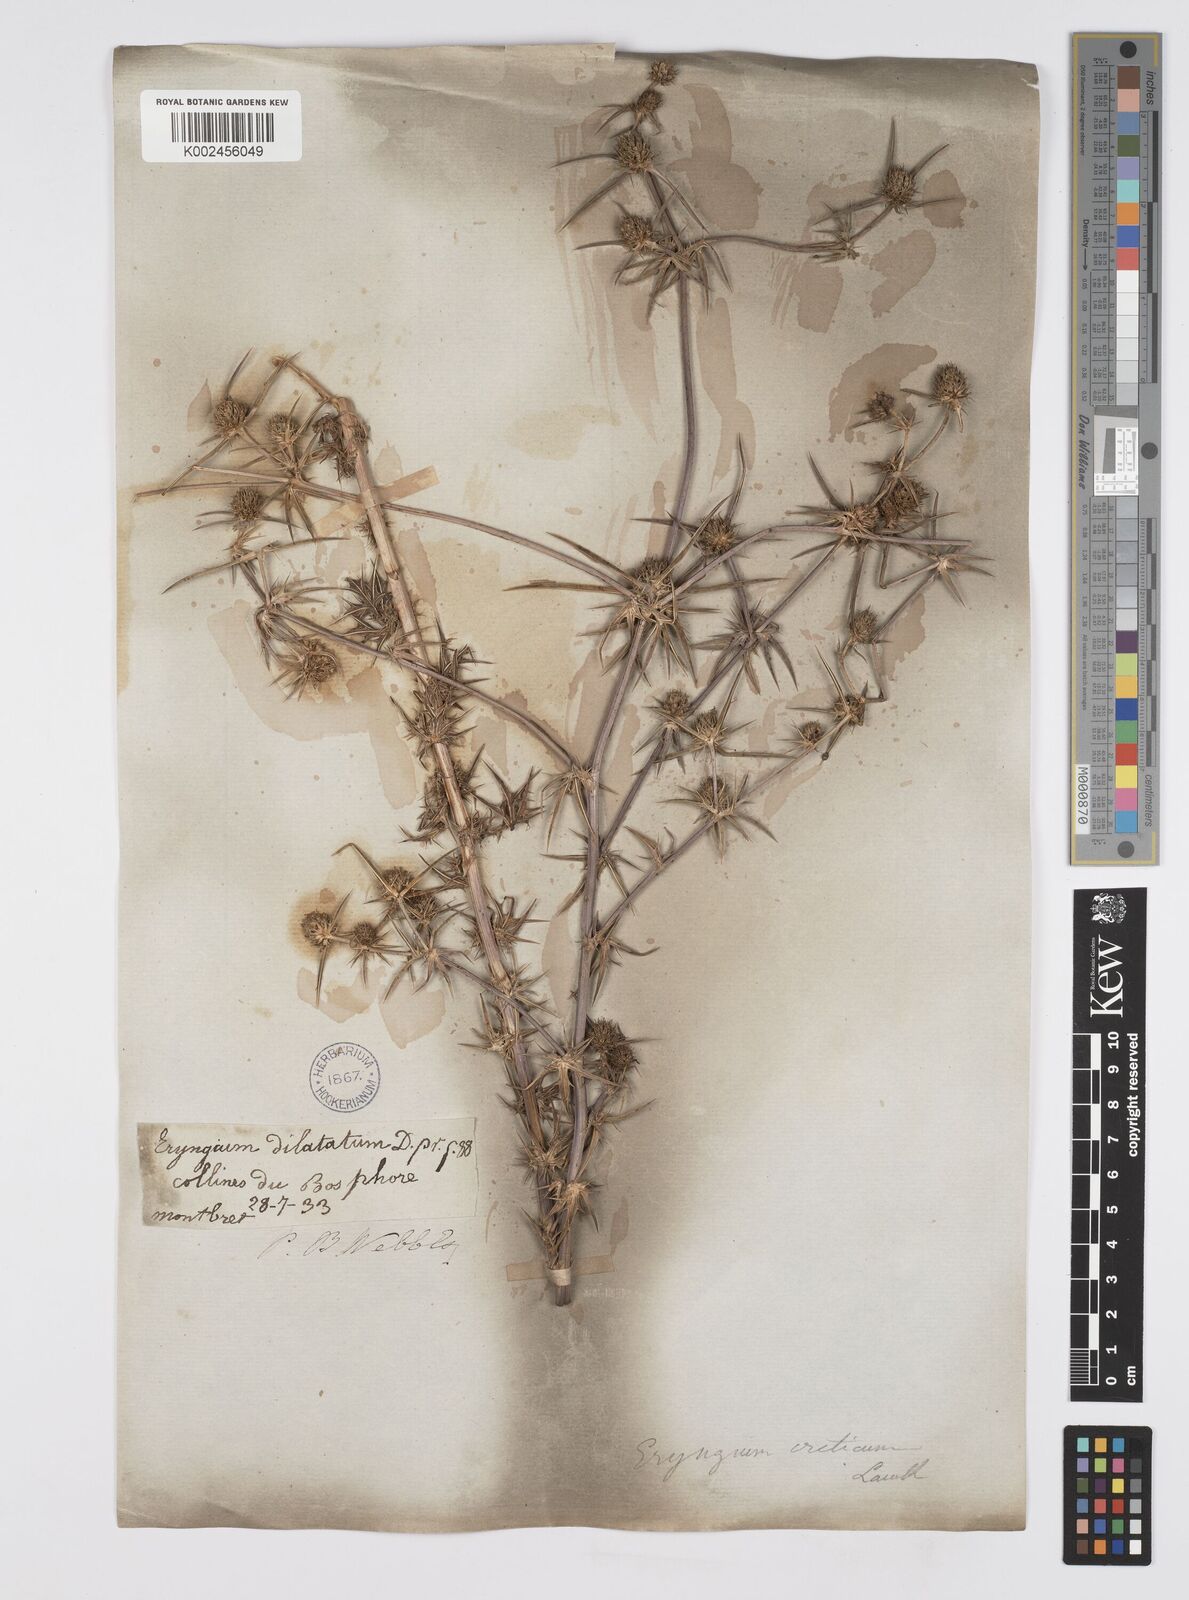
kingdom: Plantae
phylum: Tracheophyta
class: Magnoliopsida
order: Apiales
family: Apiaceae
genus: Eryngium
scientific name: Eryngium creticum
